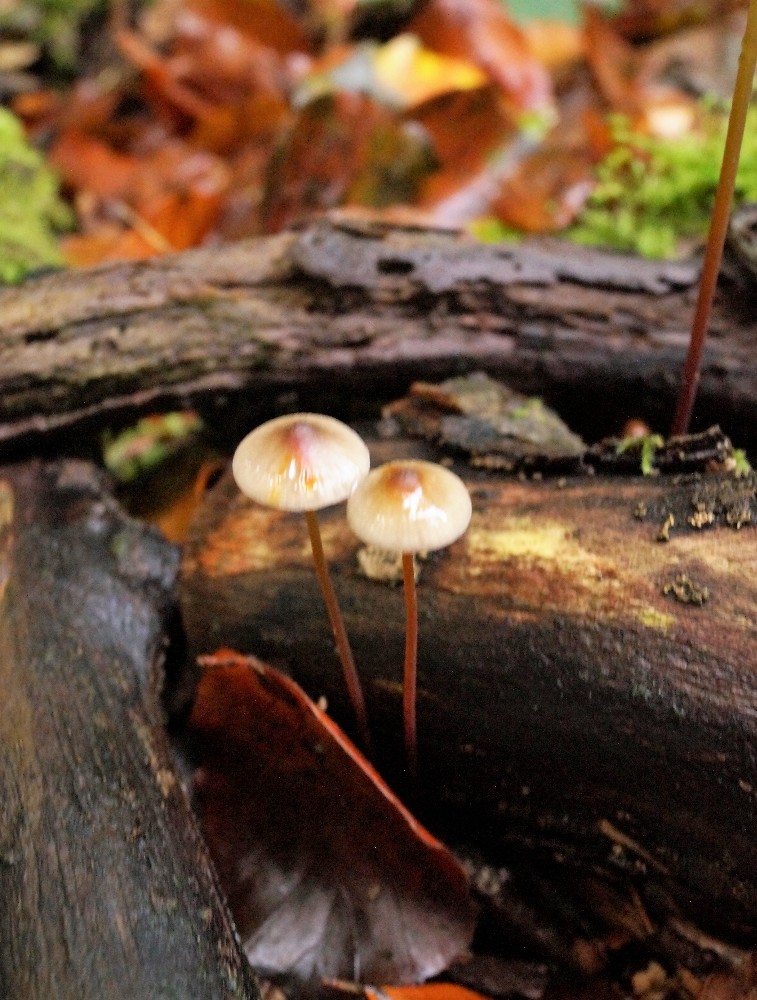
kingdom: Fungi
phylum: Basidiomycota
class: Agaricomycetes
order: Agaricales
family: Mycenaceae
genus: Mycena
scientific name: Mycena crocata
